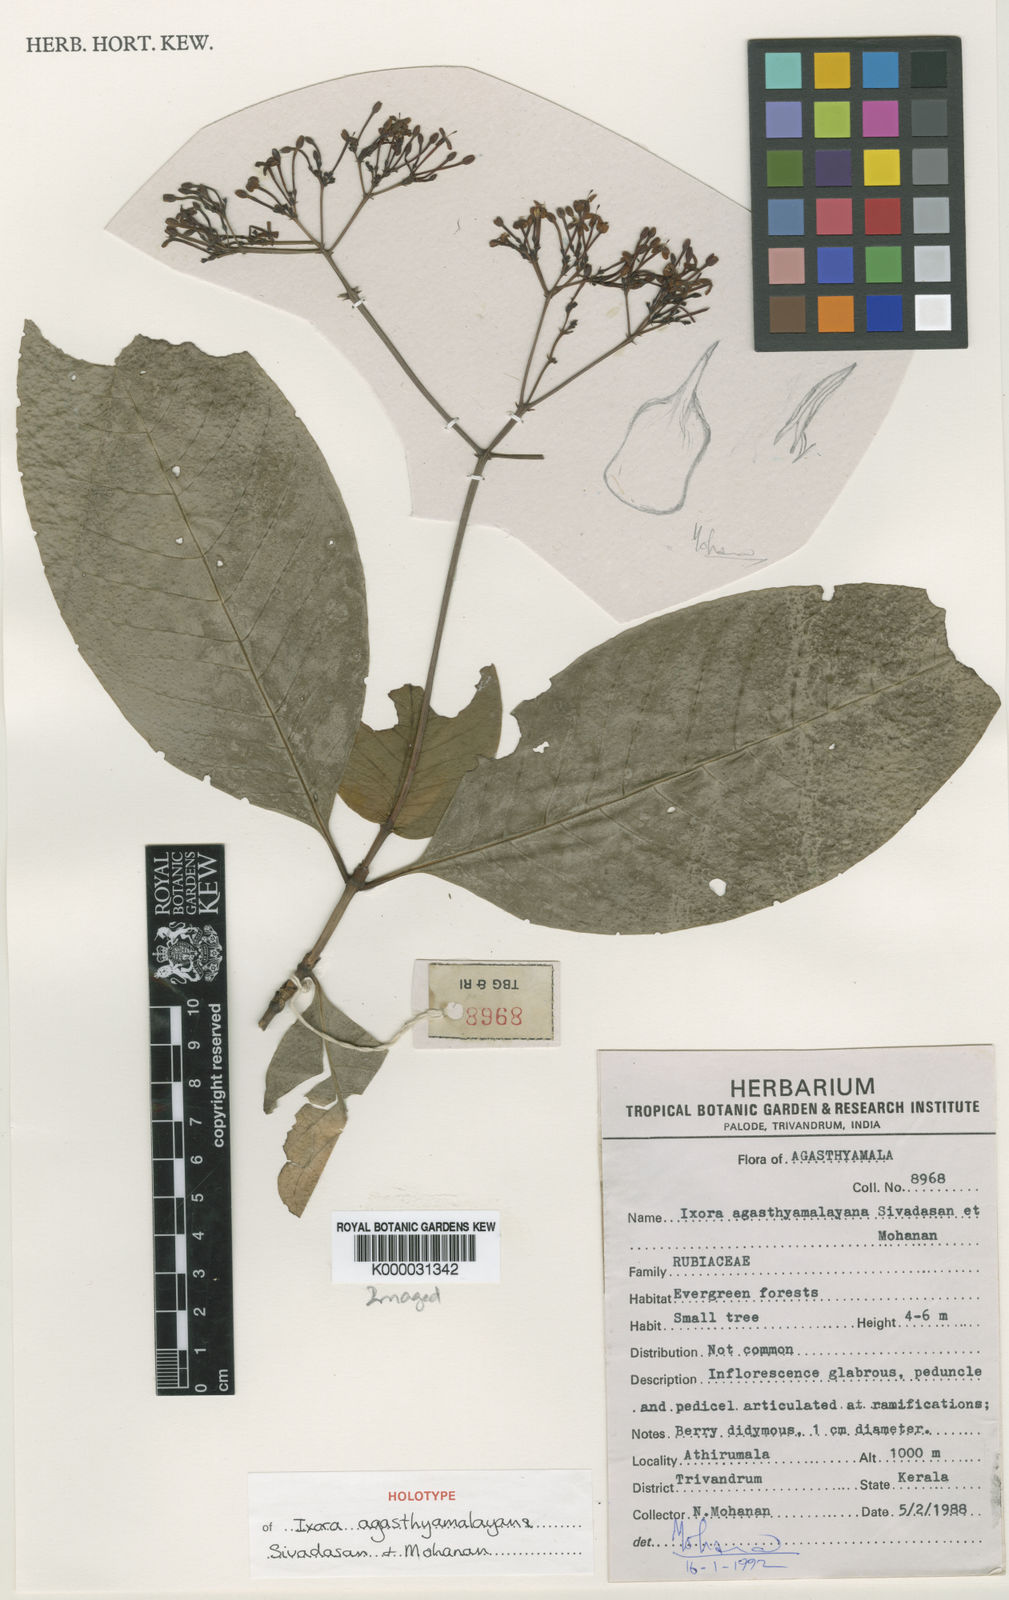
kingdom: Plantae
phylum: Tracheophyta
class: Magnoliopsida
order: Gentianales
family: Rubiaceae
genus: Ixora
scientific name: Ixora agasthyamalayana
